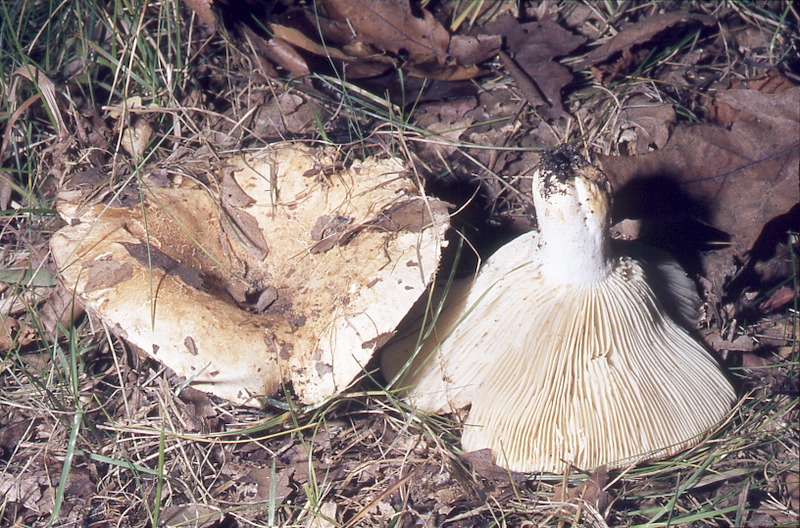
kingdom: Fungi
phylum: Basidiomycota
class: Agaricomycetes
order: Russulales
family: Russulaceae
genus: Russula
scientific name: Russula delica
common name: Milk white brittlegill
